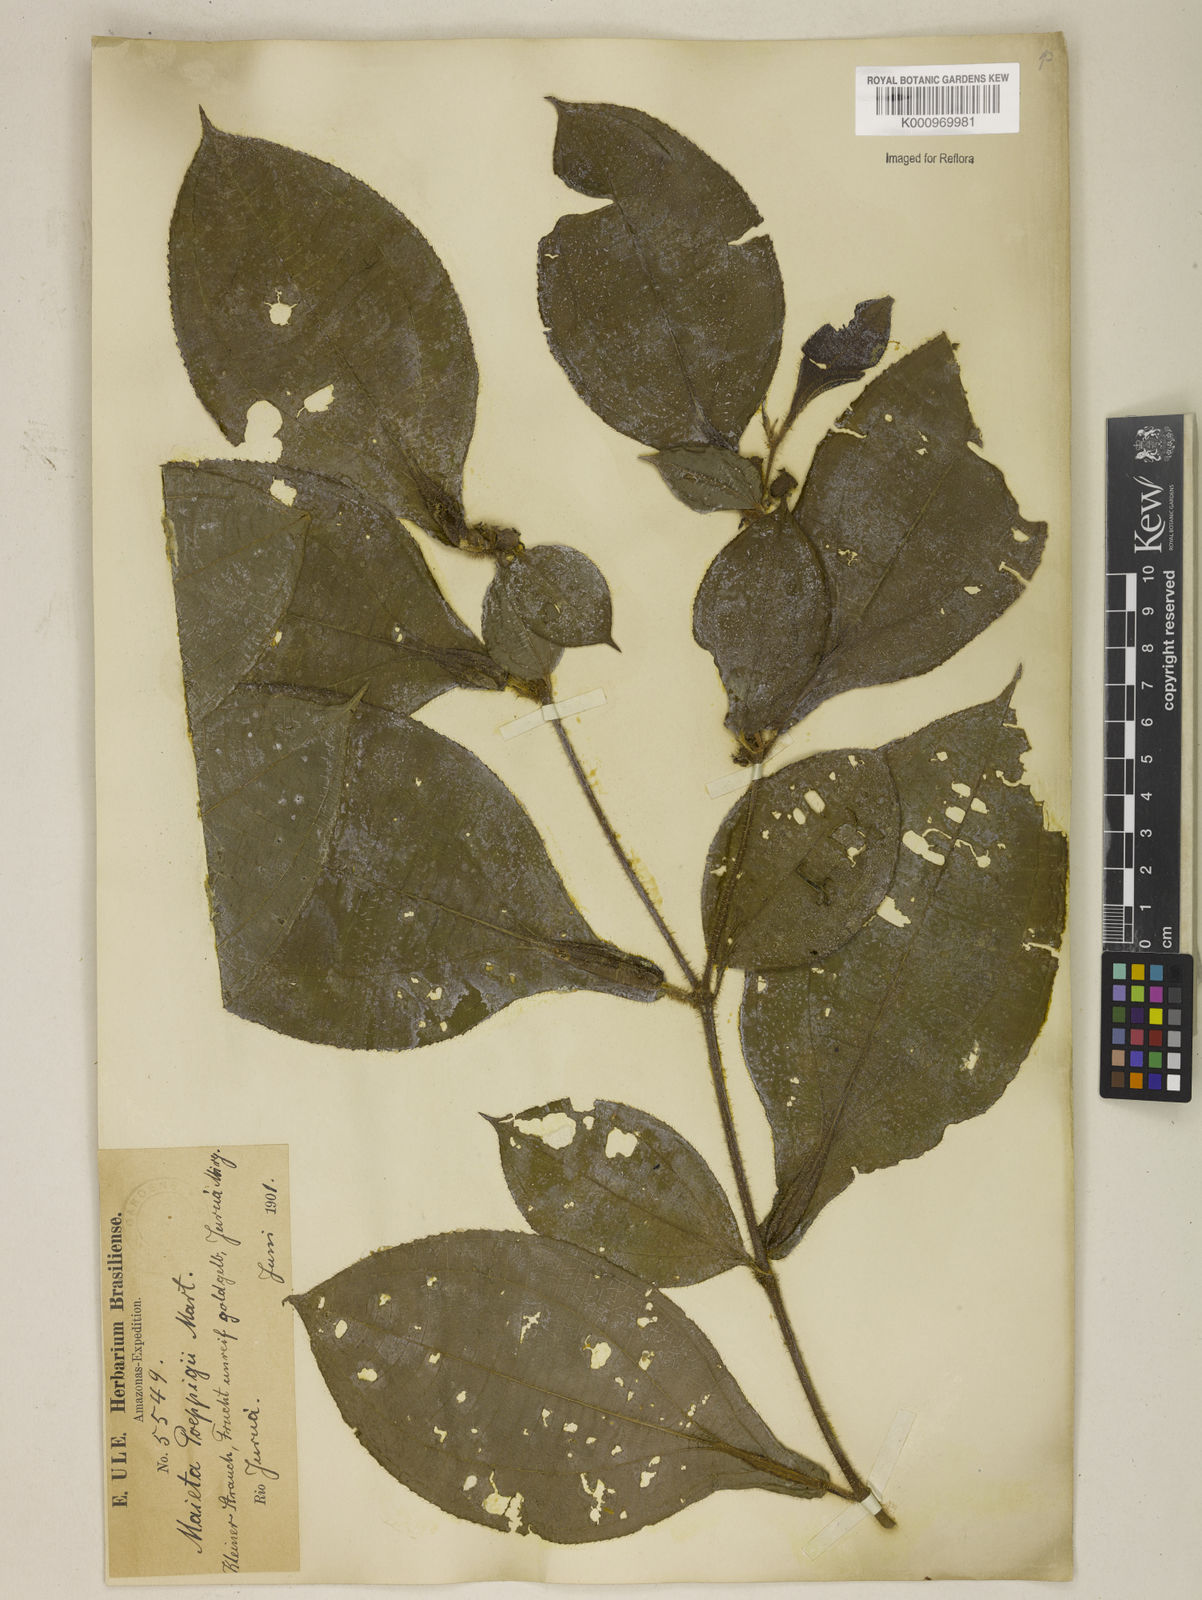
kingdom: Plantae
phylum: Tracheophyta
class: Magnoliopsida
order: Myrtales
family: Melastomataceae
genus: Miconia
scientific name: Miconia alternidomatia
